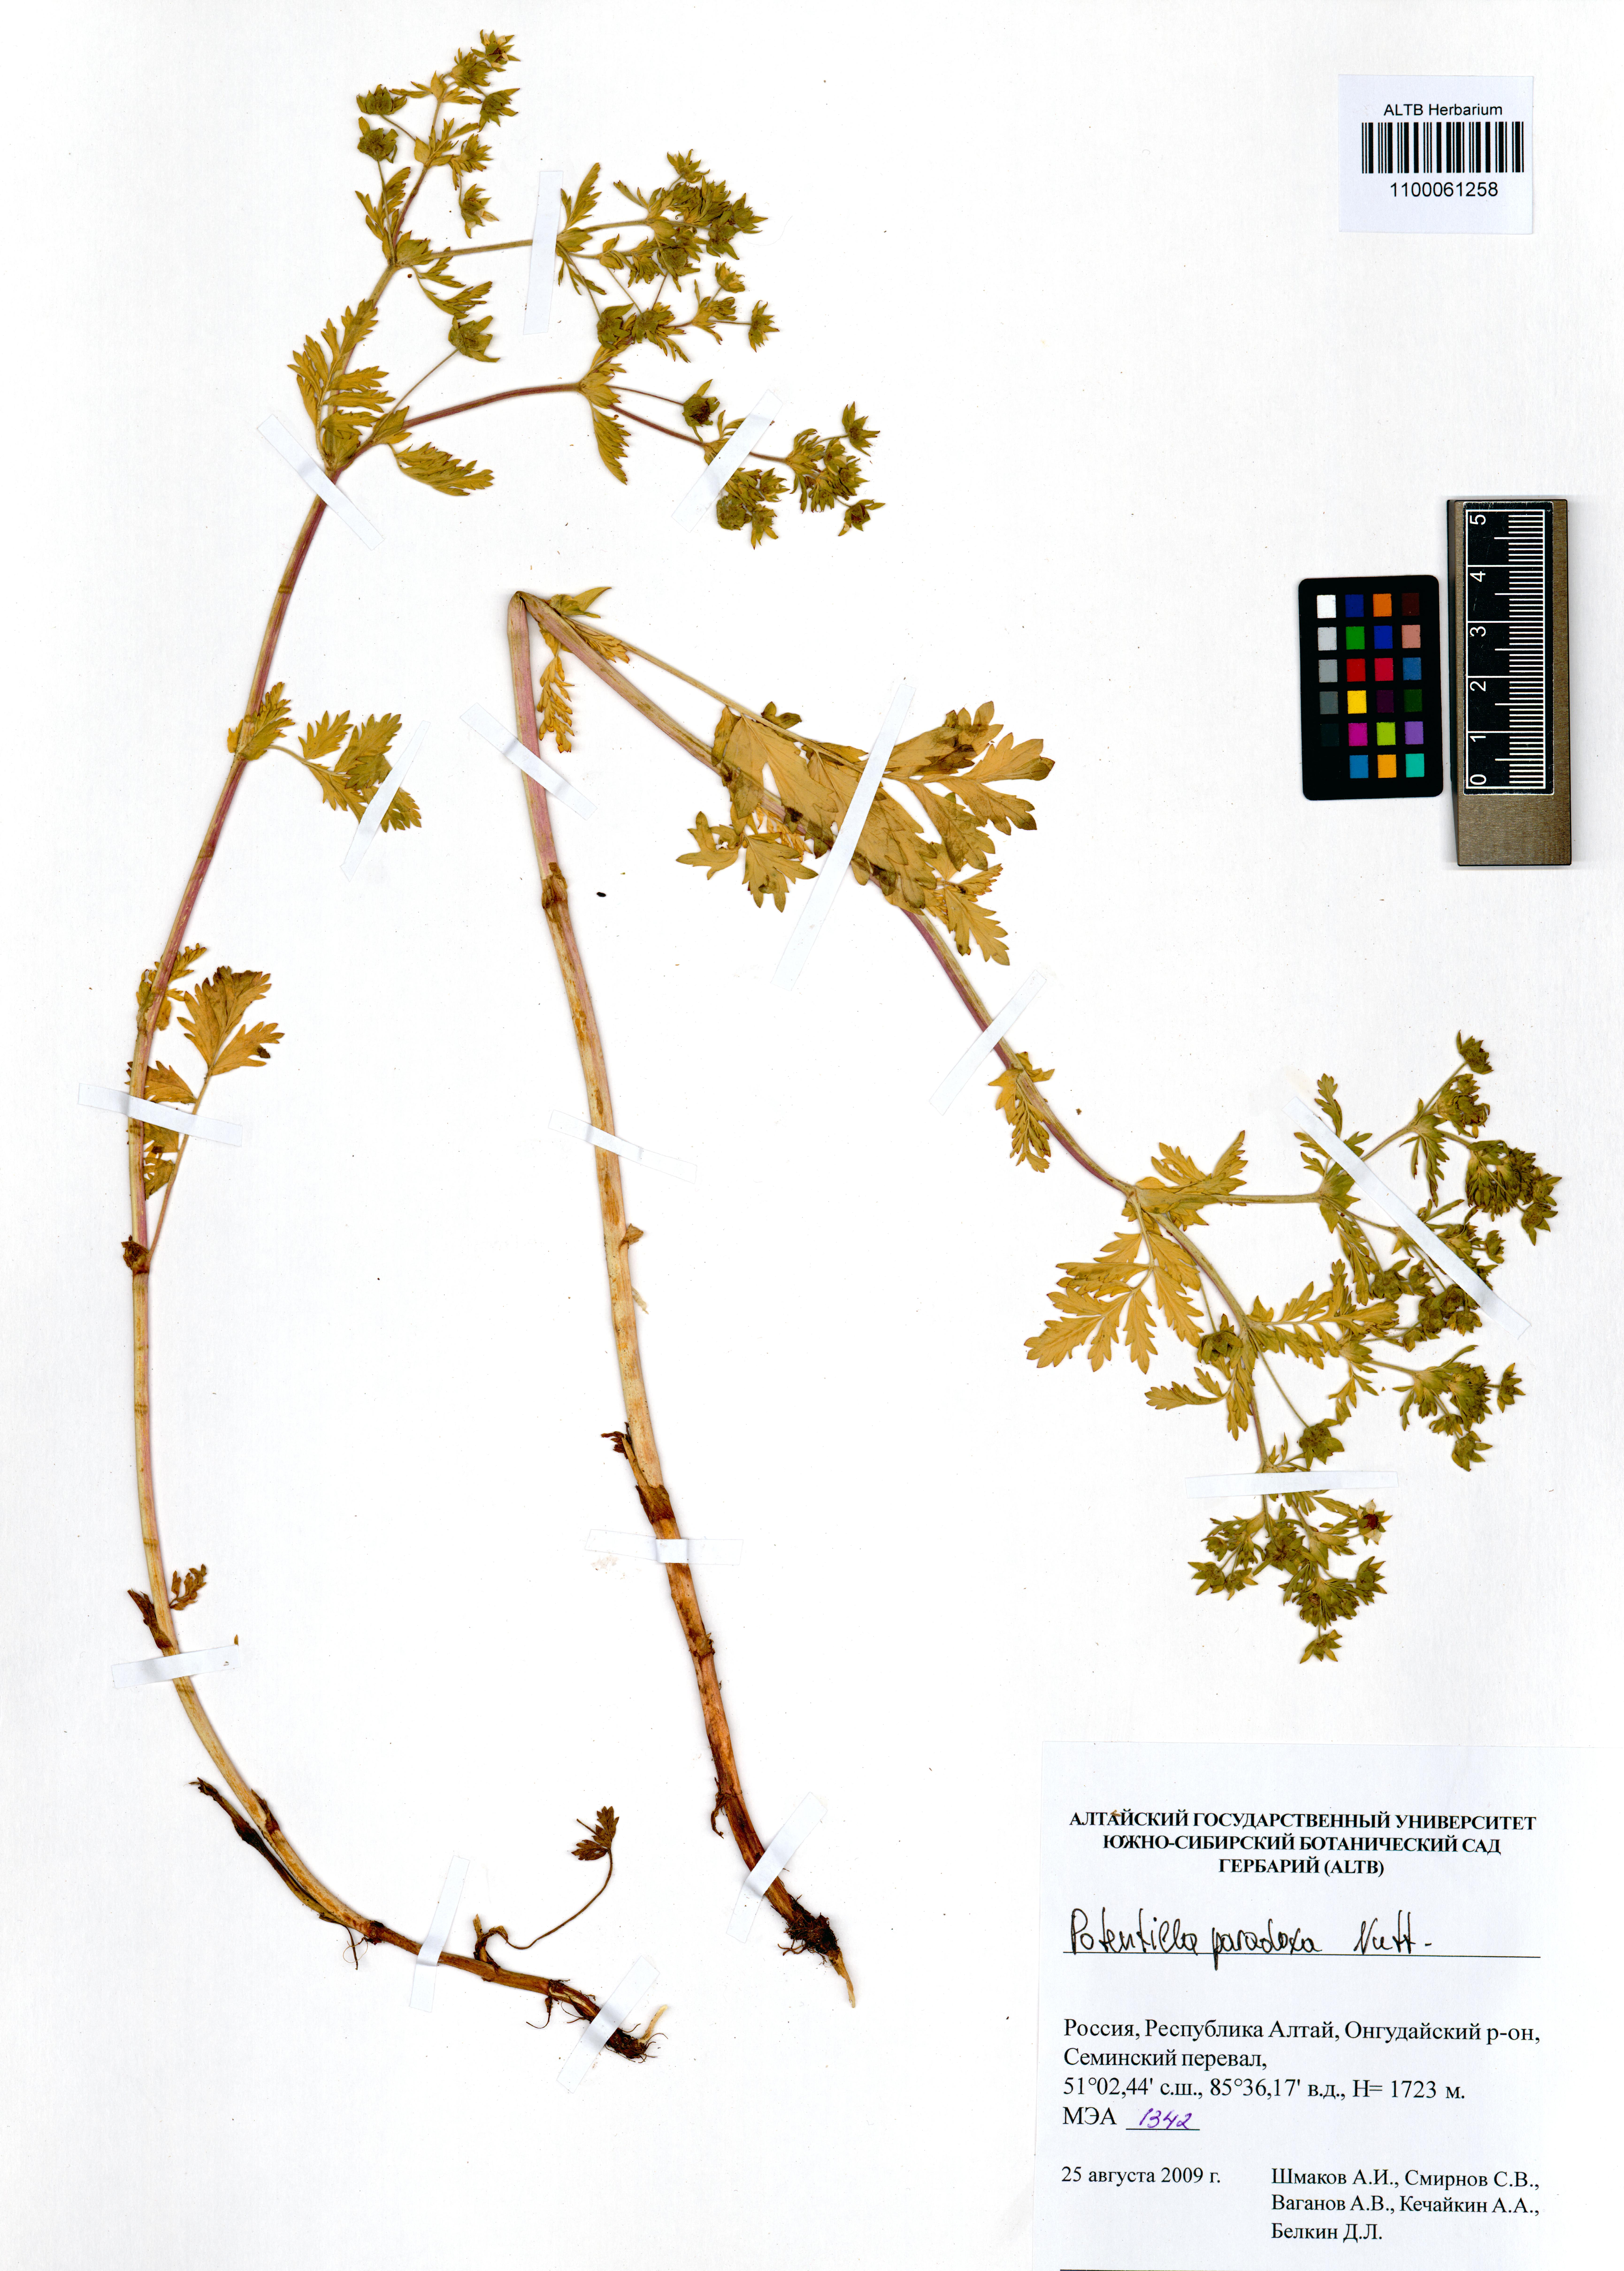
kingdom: Plantae
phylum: Tracheophyta
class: Magnoliopsida
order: Rosales
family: Rosaceae
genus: Potentilla
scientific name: Potentilla supina
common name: Prostrate cinquefoil
